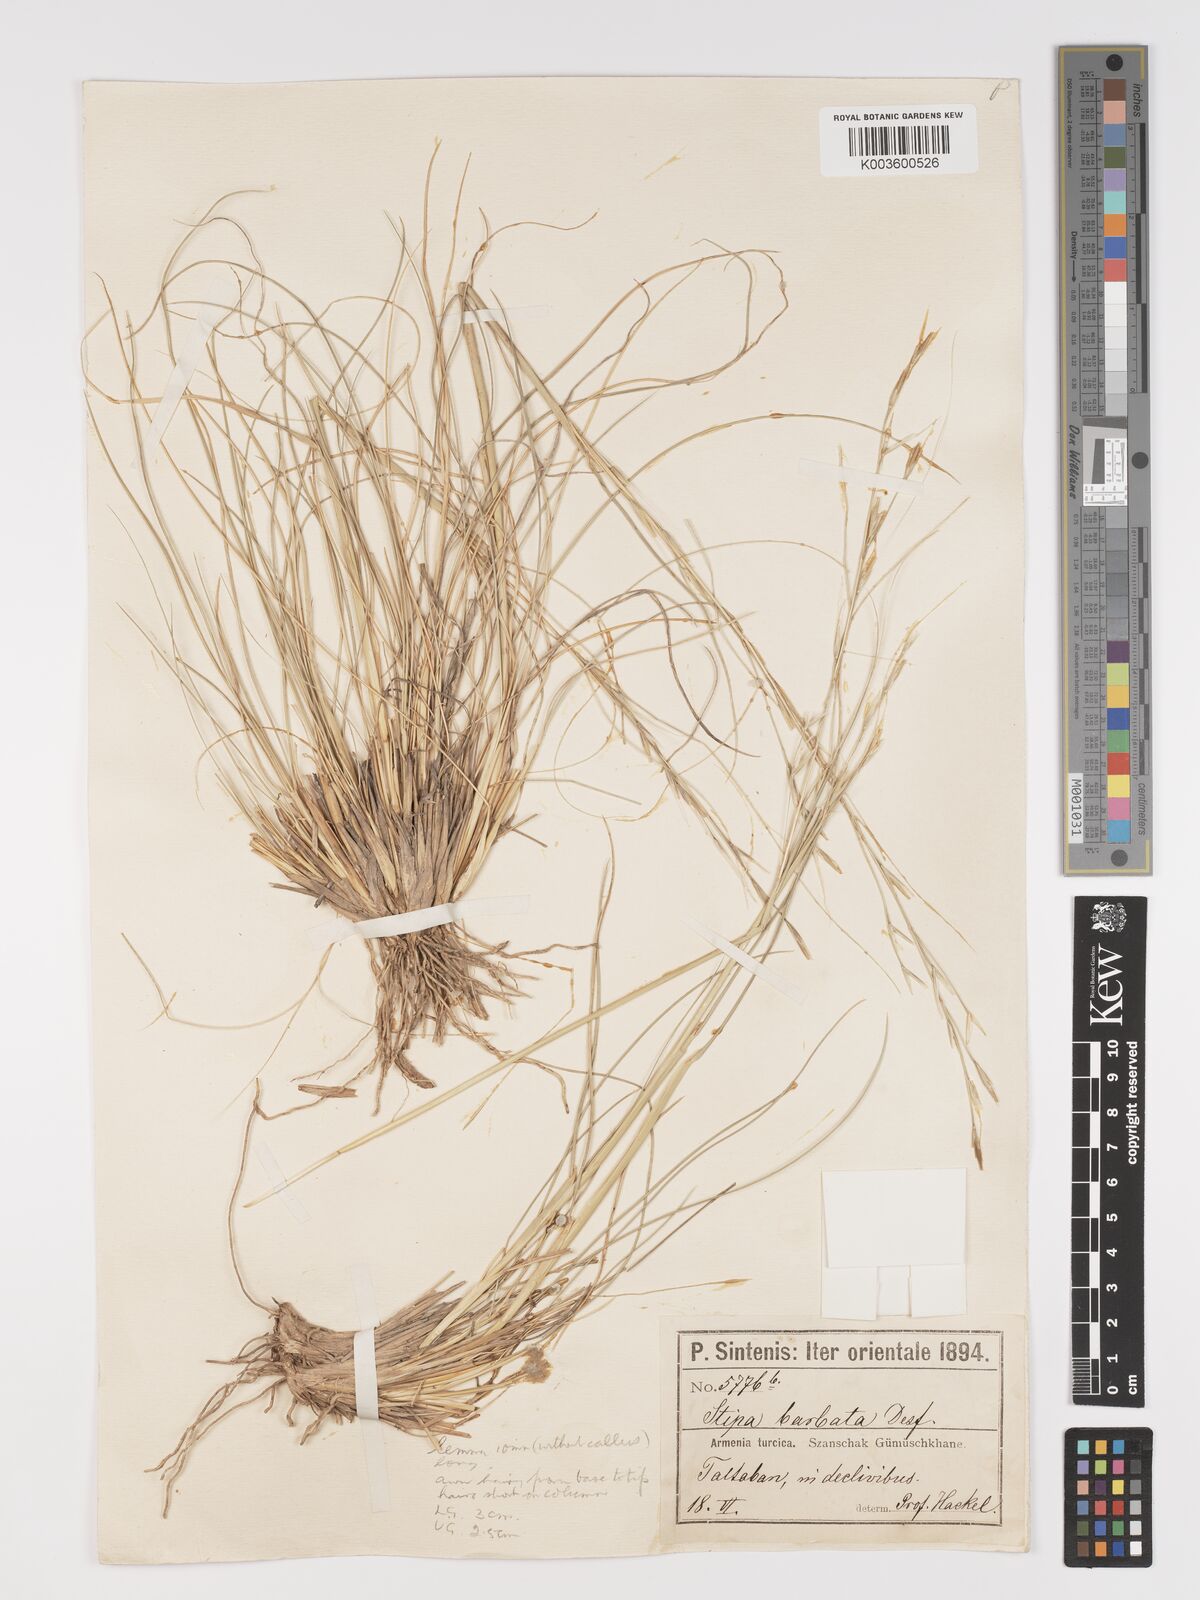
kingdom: Plantae
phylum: Tracheophyta
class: Liliopsida
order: Poales
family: Poaceae
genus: Stipa
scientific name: Stipa barbata
